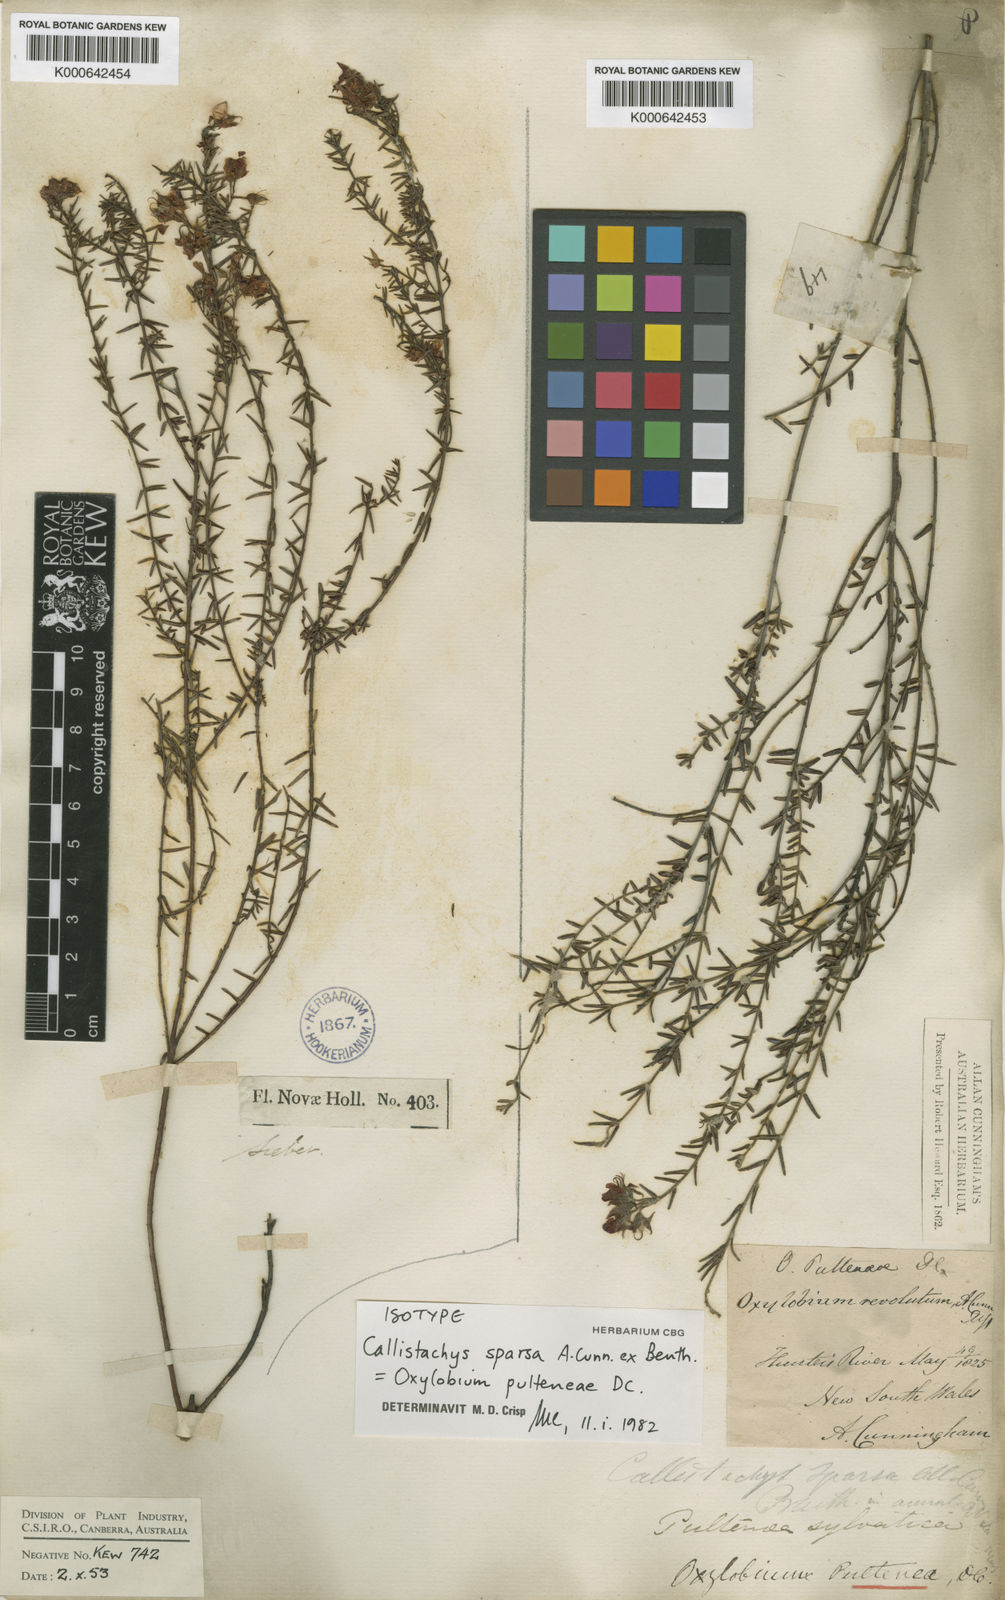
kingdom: Plantae
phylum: Tracheophyta
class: Magnoliopsida
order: Fabales
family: Fabaceae
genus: Oxylobium
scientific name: Oxylobium pulteneae
